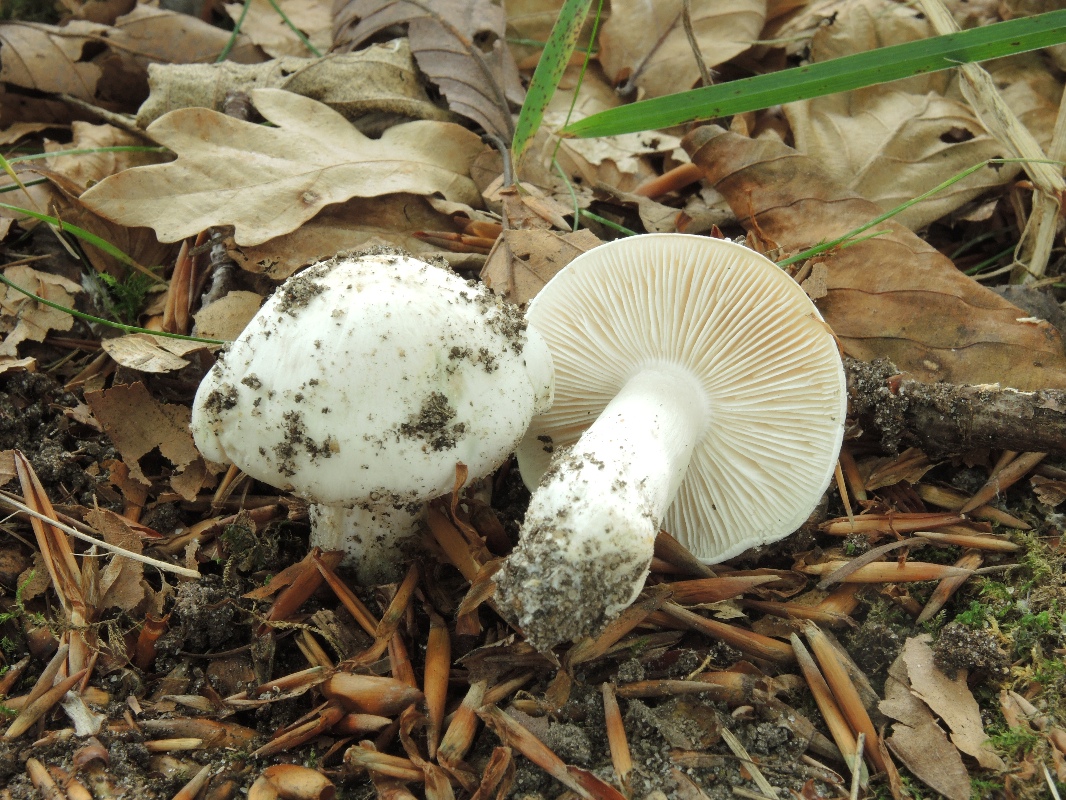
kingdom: Fungi
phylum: Basidiomycota
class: Agaricomycetes
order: Agaricales
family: Tricholomataceae
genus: Tricholoma
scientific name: Tricholoma columbetta
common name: silke-ridderhat
